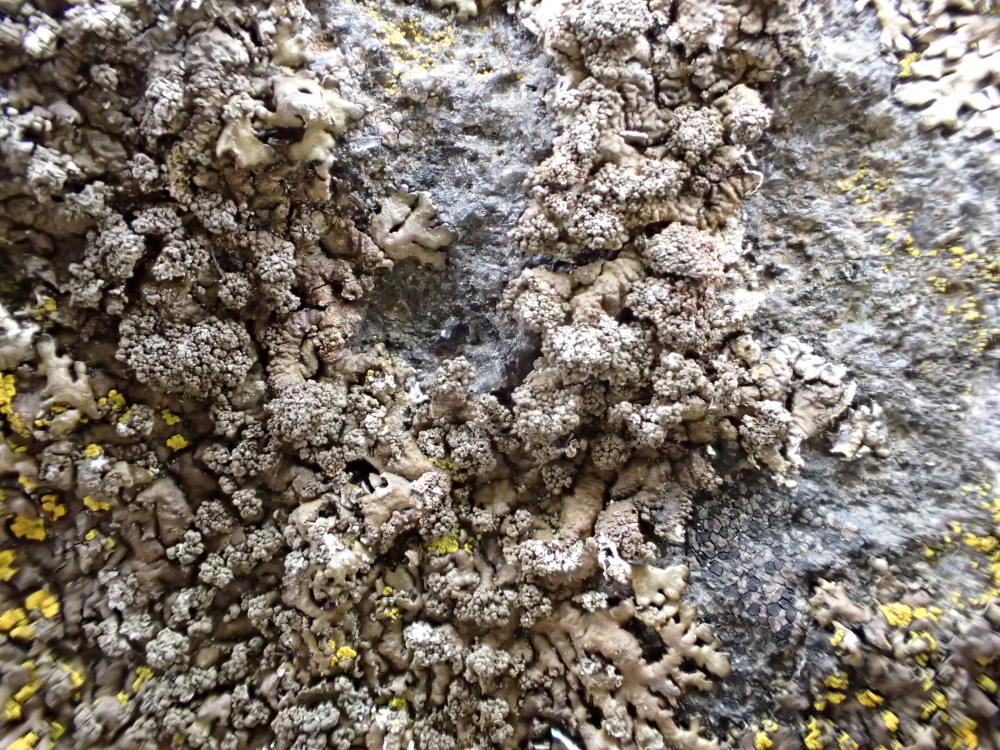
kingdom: Fungi
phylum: Ascomycota
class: Lecanoromycetes
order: Lecanorales
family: Parmeliaceae
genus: Xanthoparmelia
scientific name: Xanthoparmelia verruculifera
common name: småknoppet skållav
